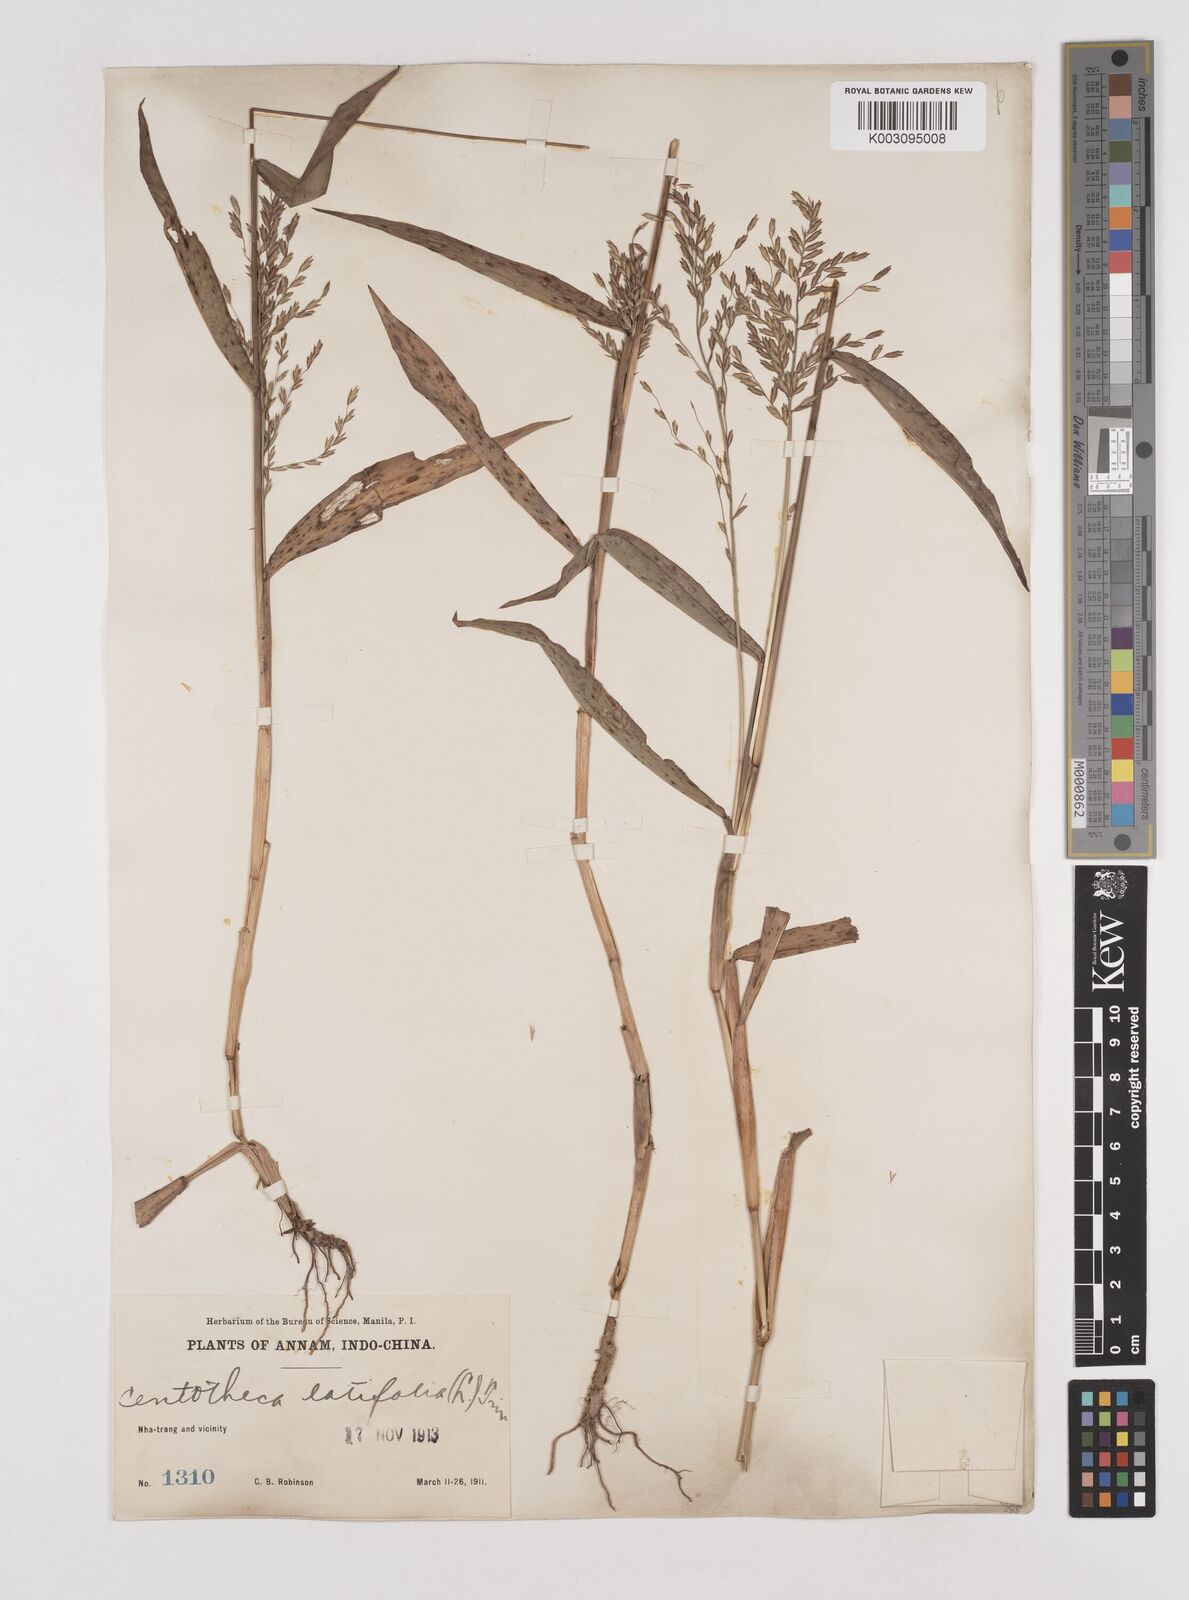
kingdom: Plantae
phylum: Tracheophyta
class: Liliopsida
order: Poales
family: Poaceae
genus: Centotheca
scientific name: Centotheca lappacea
